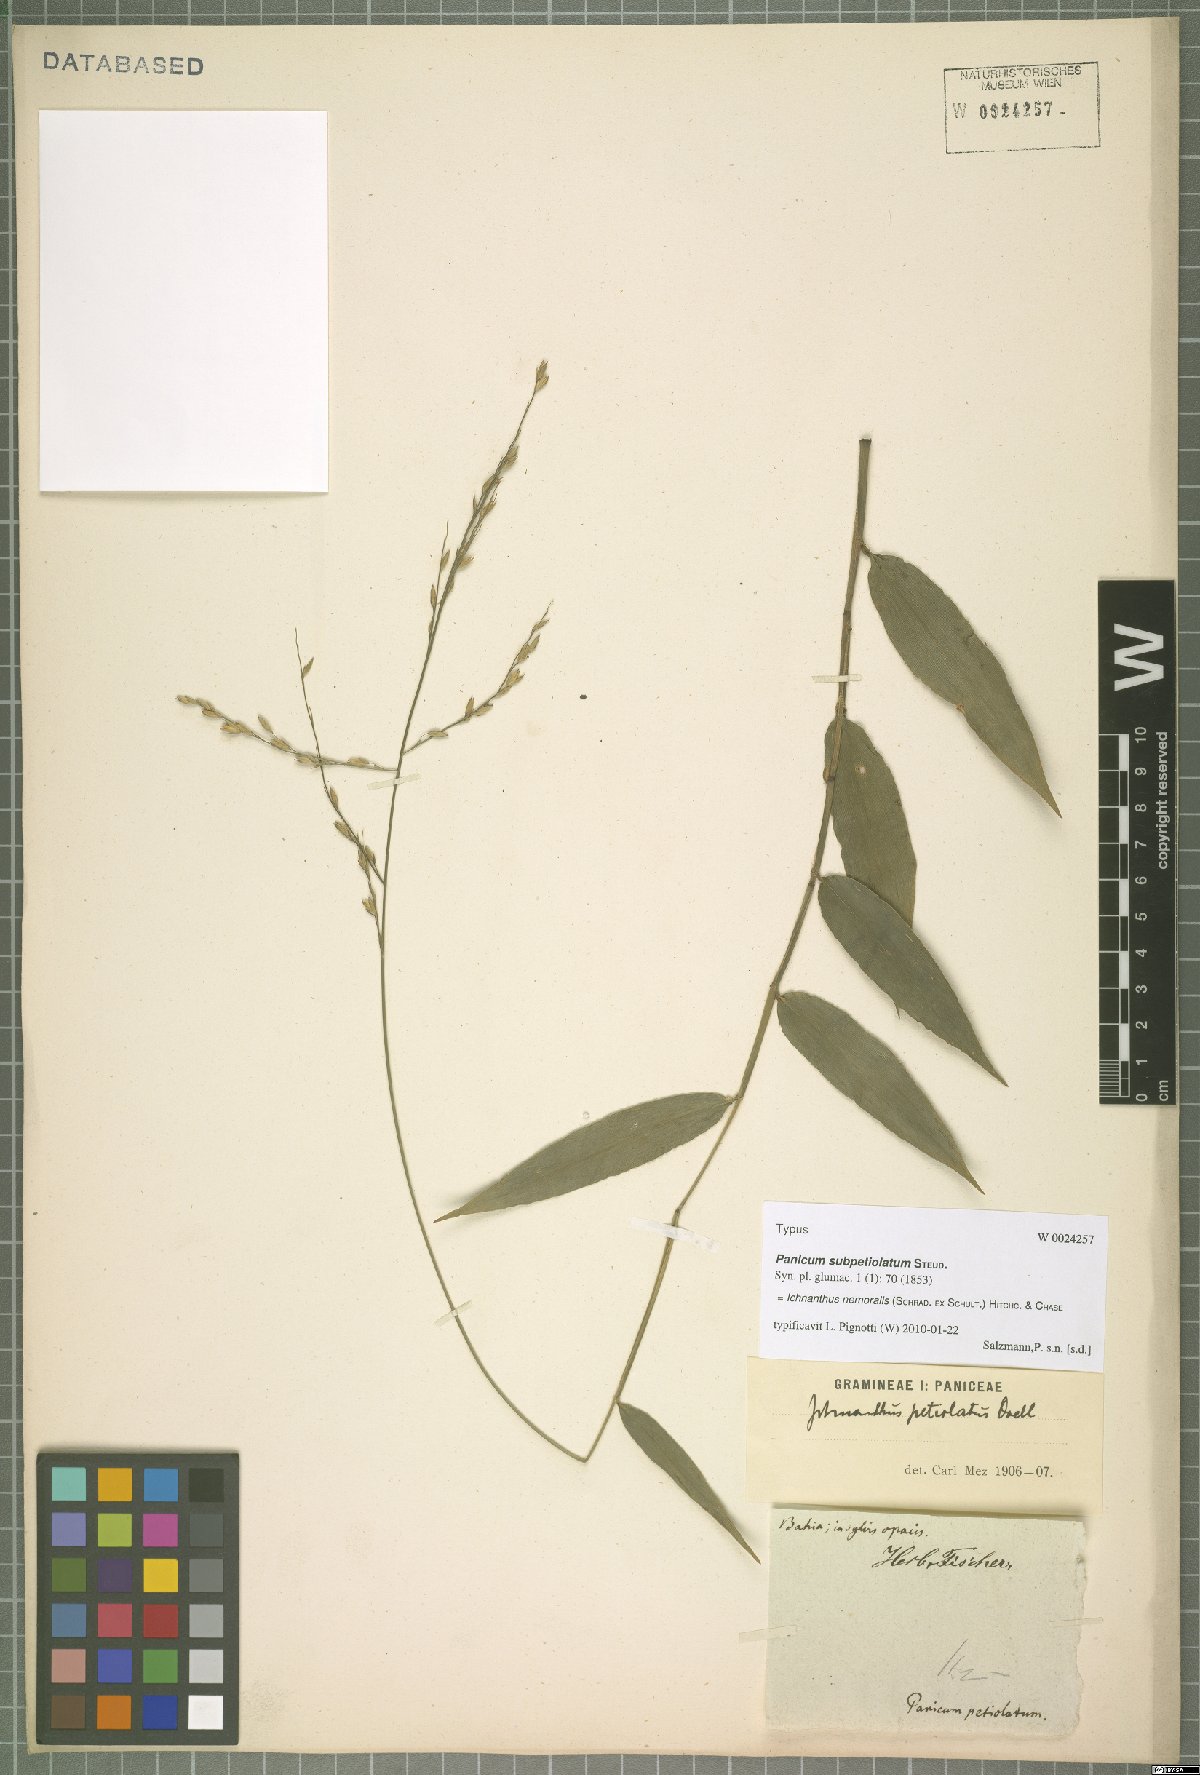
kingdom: Plantae
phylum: Tracheophyta
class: Liliopsida
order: Poales
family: Poaceae
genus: Ichnanthus
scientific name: Ichnanthus nemoralis
